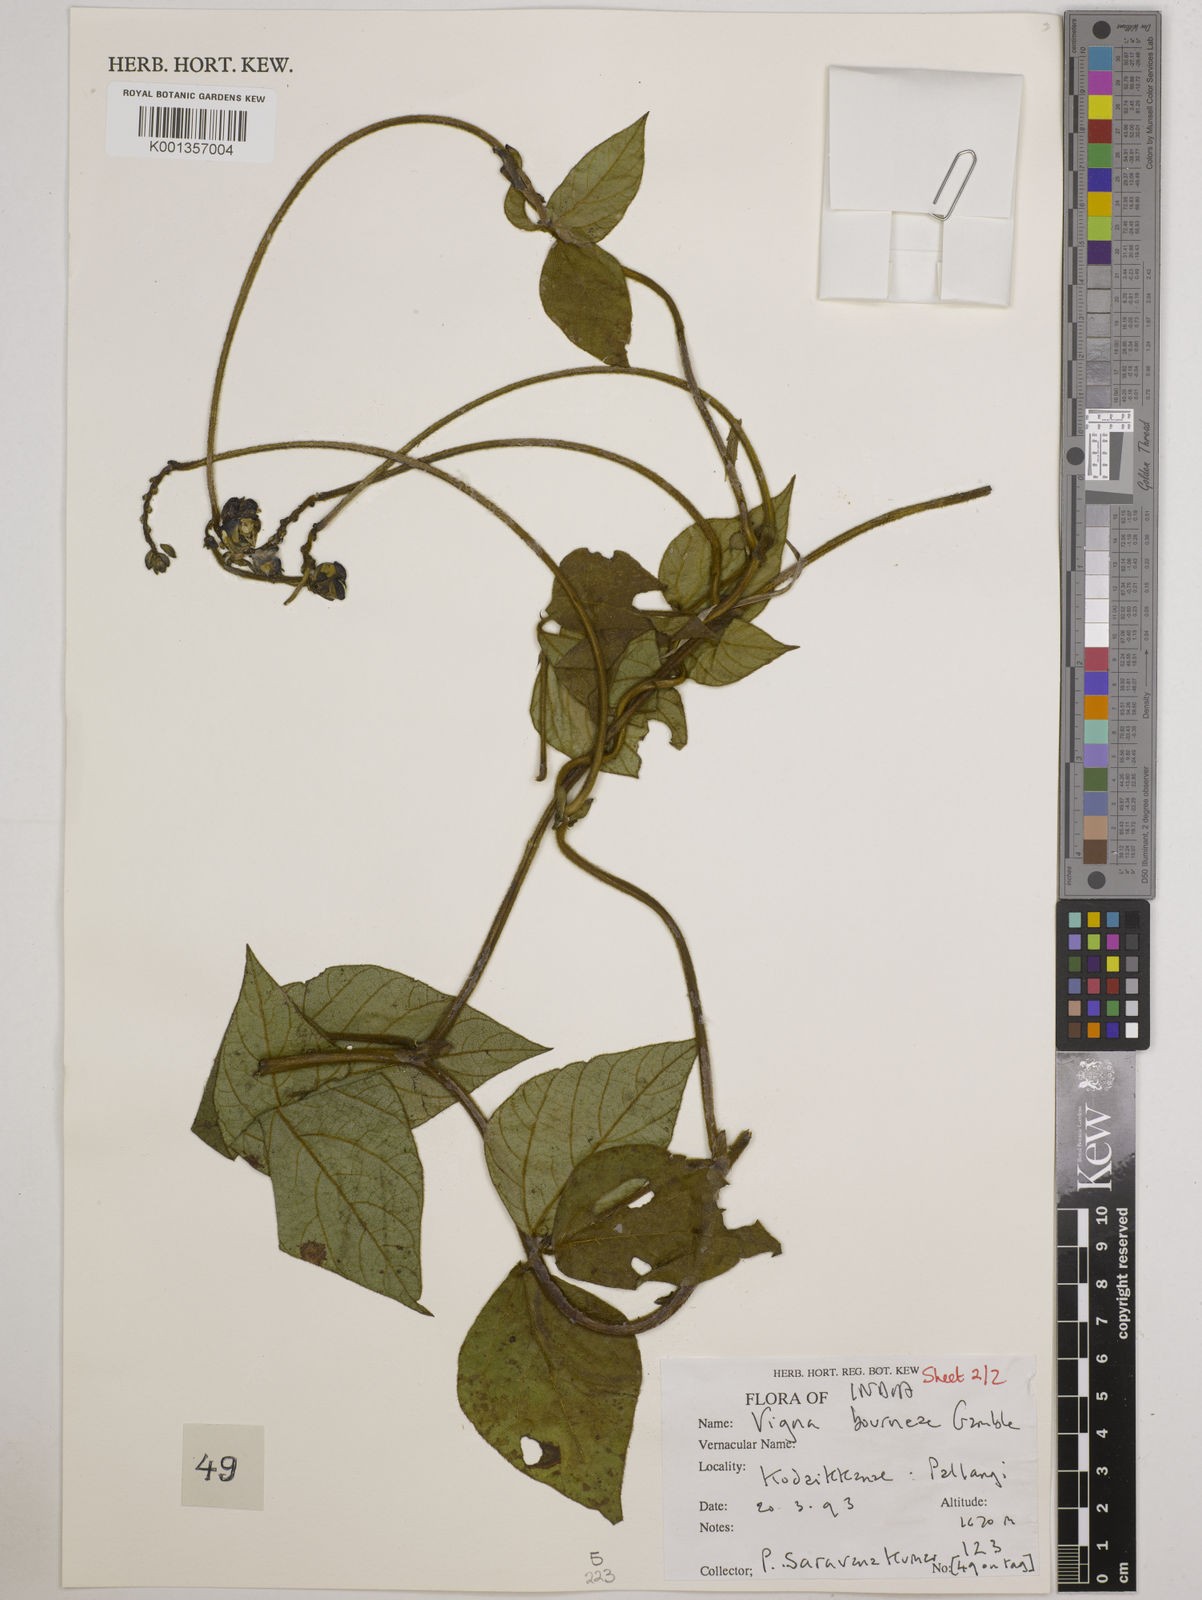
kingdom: Plantae
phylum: Tracheophyta
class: Magnoliopsida
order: Fabales
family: Fabaceae
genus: Vigna
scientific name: Vigna
